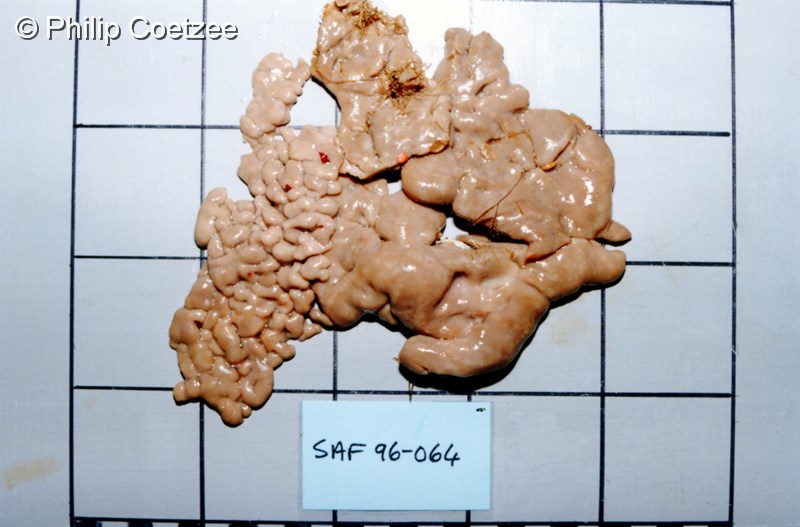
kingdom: Animalia
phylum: Porifera
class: Demospongiae
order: Chondrosiida
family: Chondrosiidae
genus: Chondrosia
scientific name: Chondrosia
